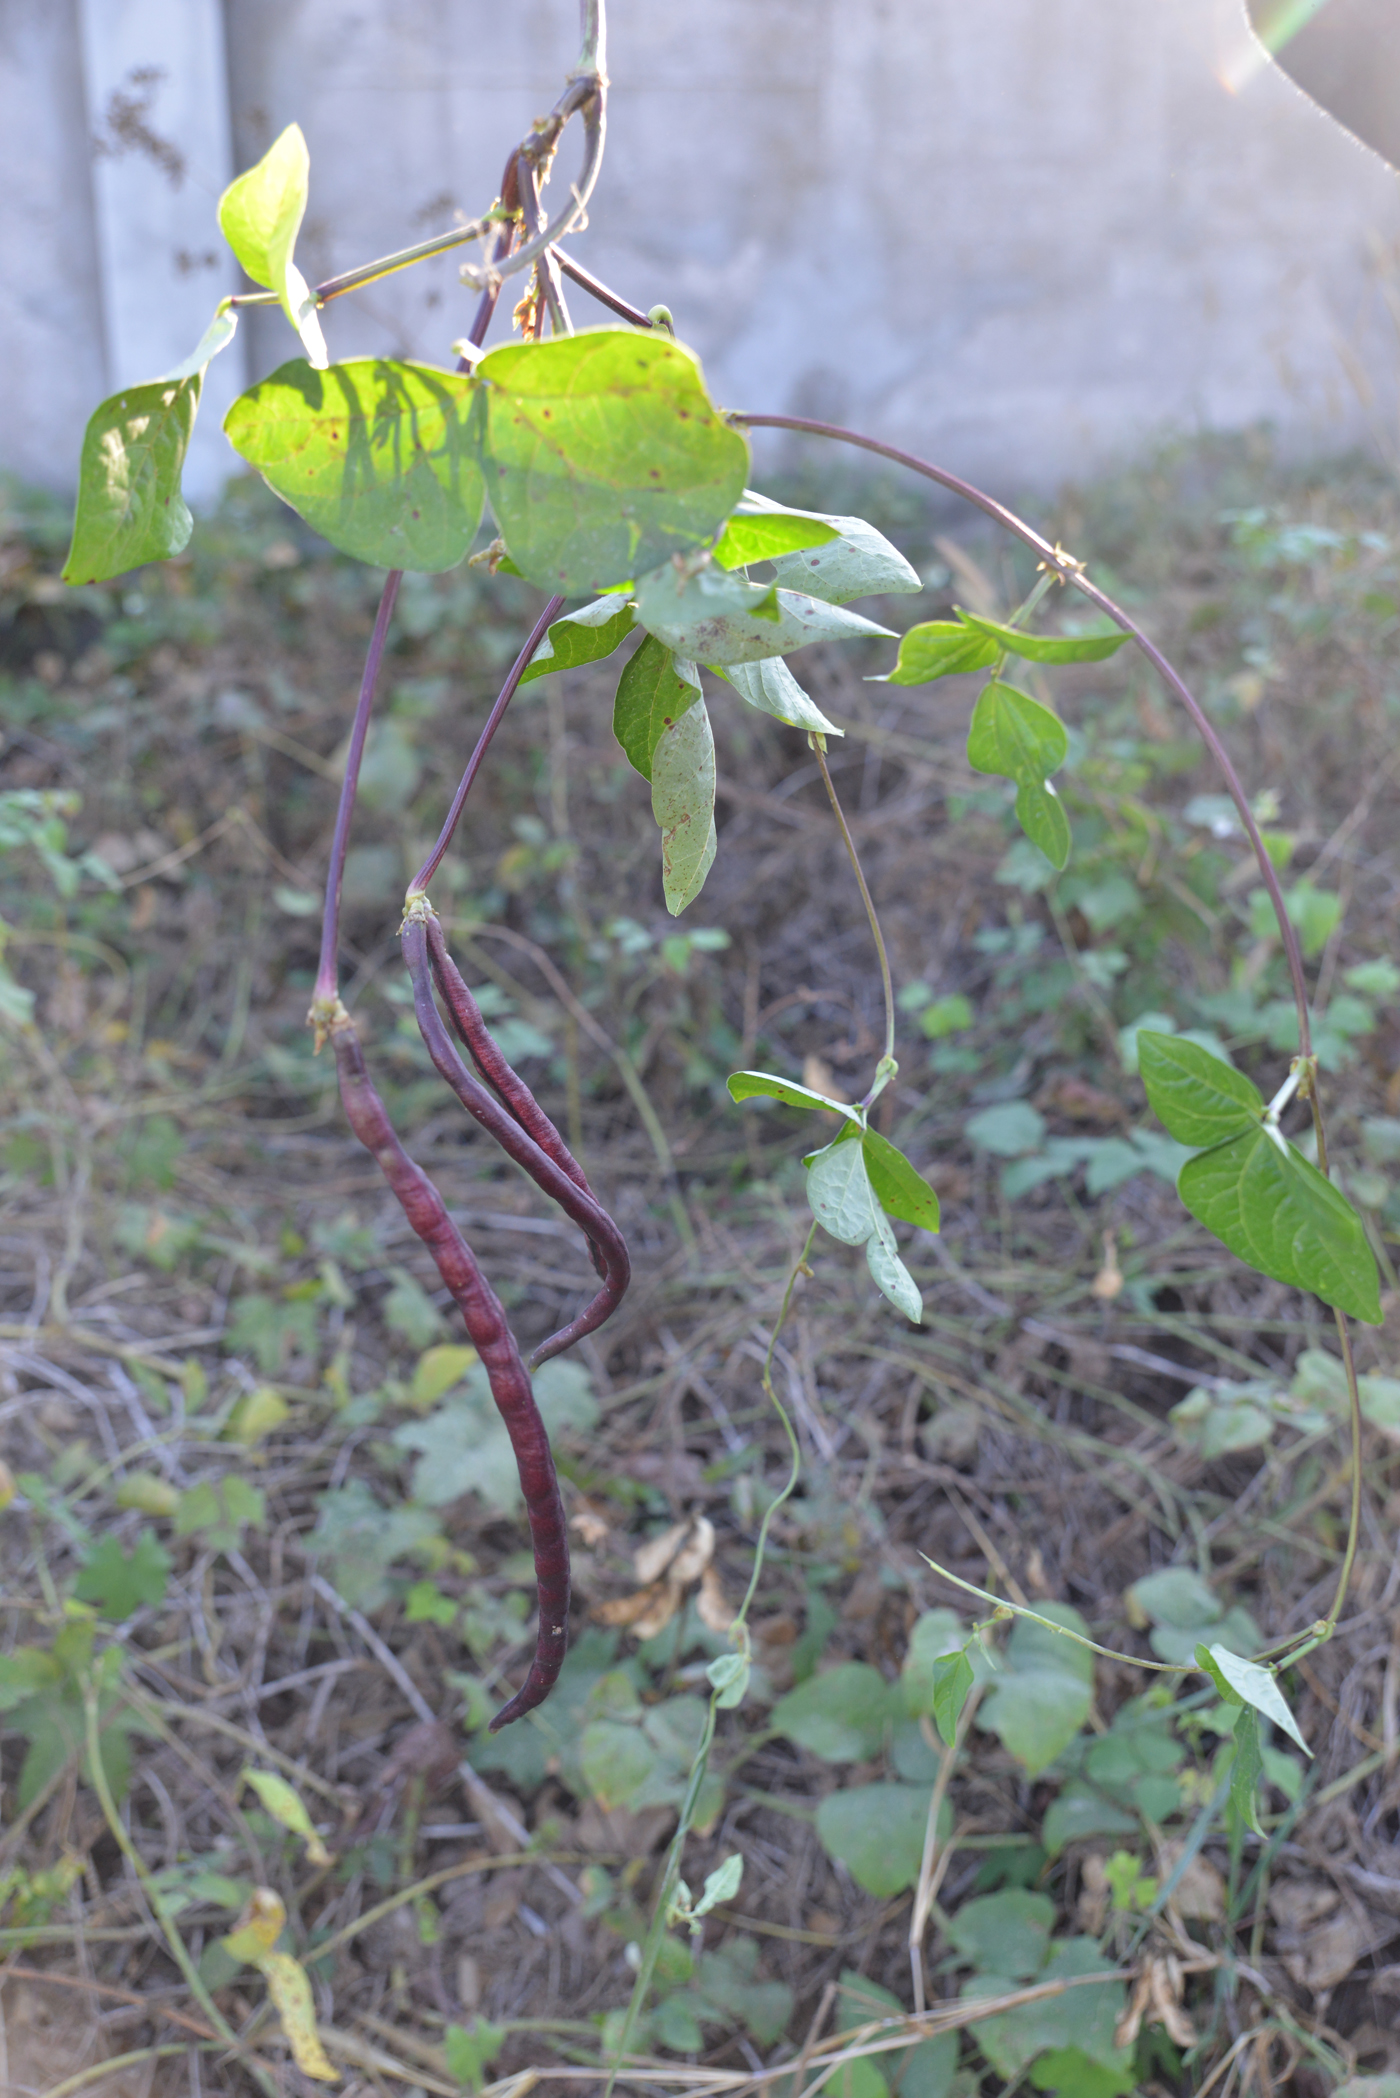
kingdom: Plantae
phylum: Tracheophyta
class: Magnoliopsida
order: Fabales
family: Fabaceae
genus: Vigna
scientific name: Vigna unguiculata
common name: Cowpea
